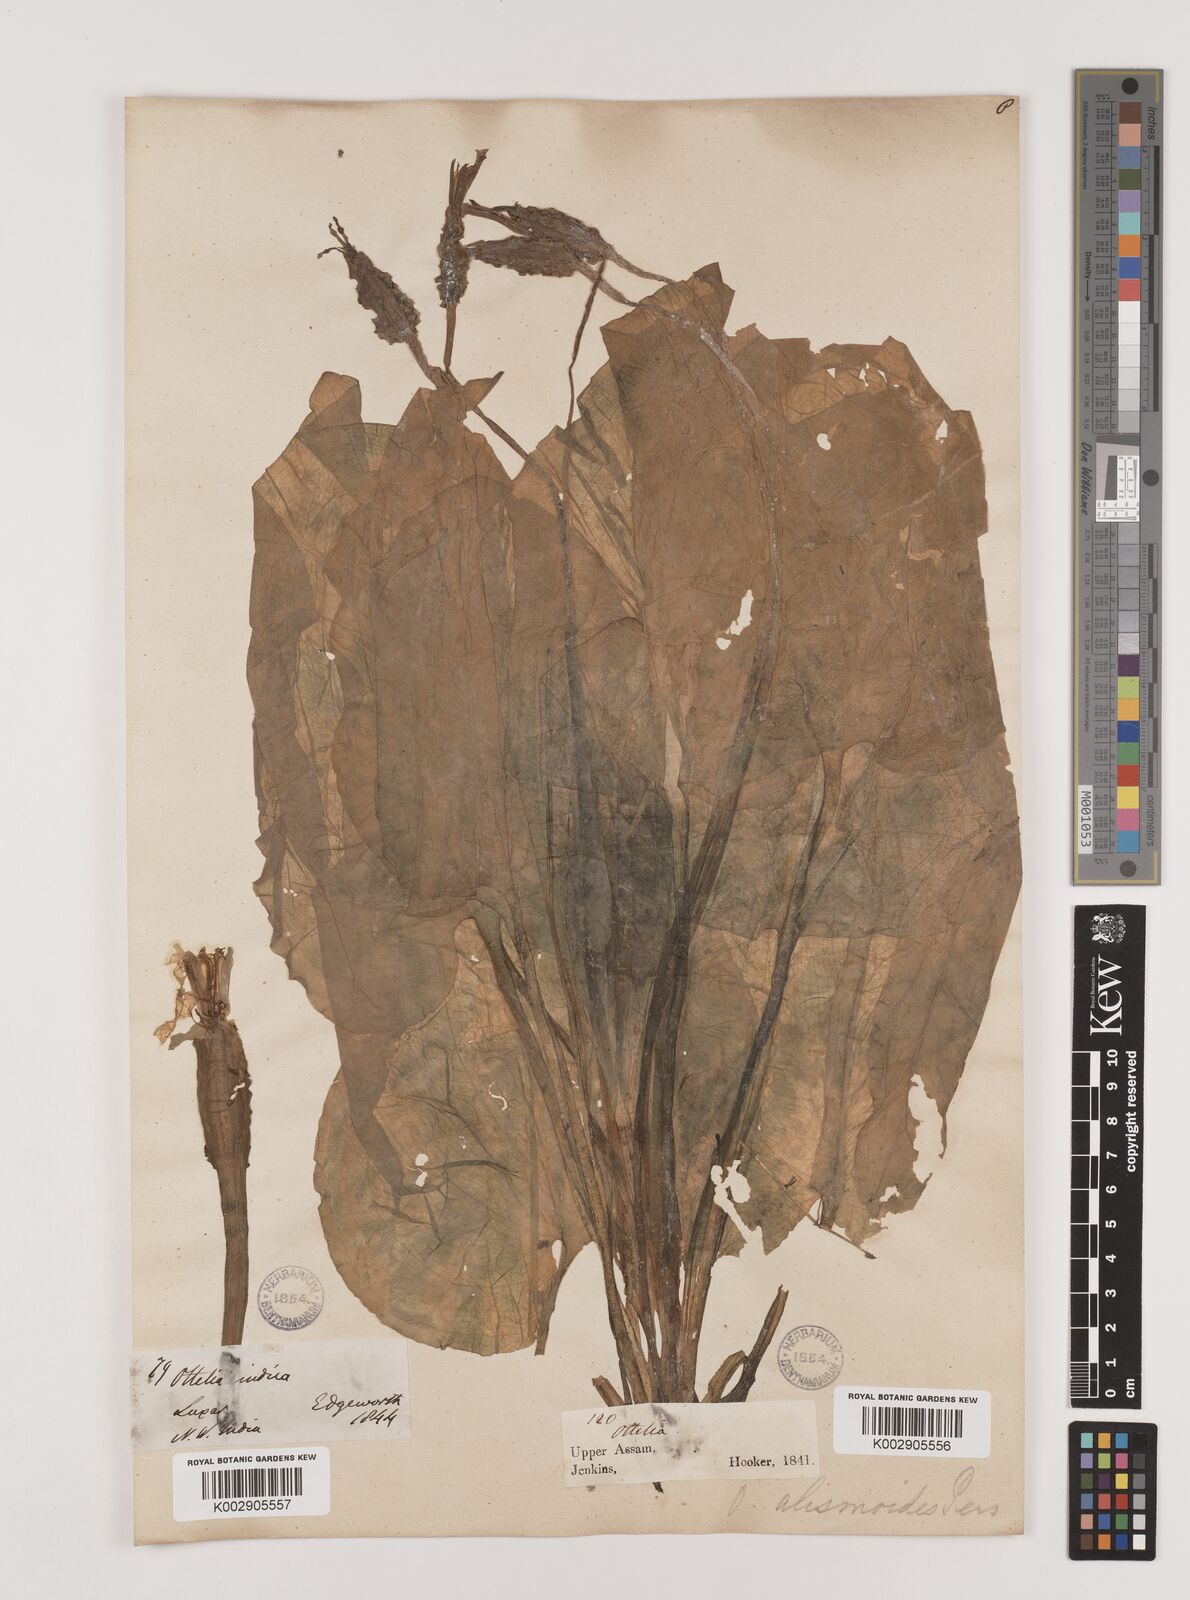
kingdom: Plantae
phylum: Tracheophyta
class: Liliopsida
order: Alismatales
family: Hydrocharitaceae
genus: Ottelia
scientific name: Ottelia alismoides
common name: Duck-lettuce
